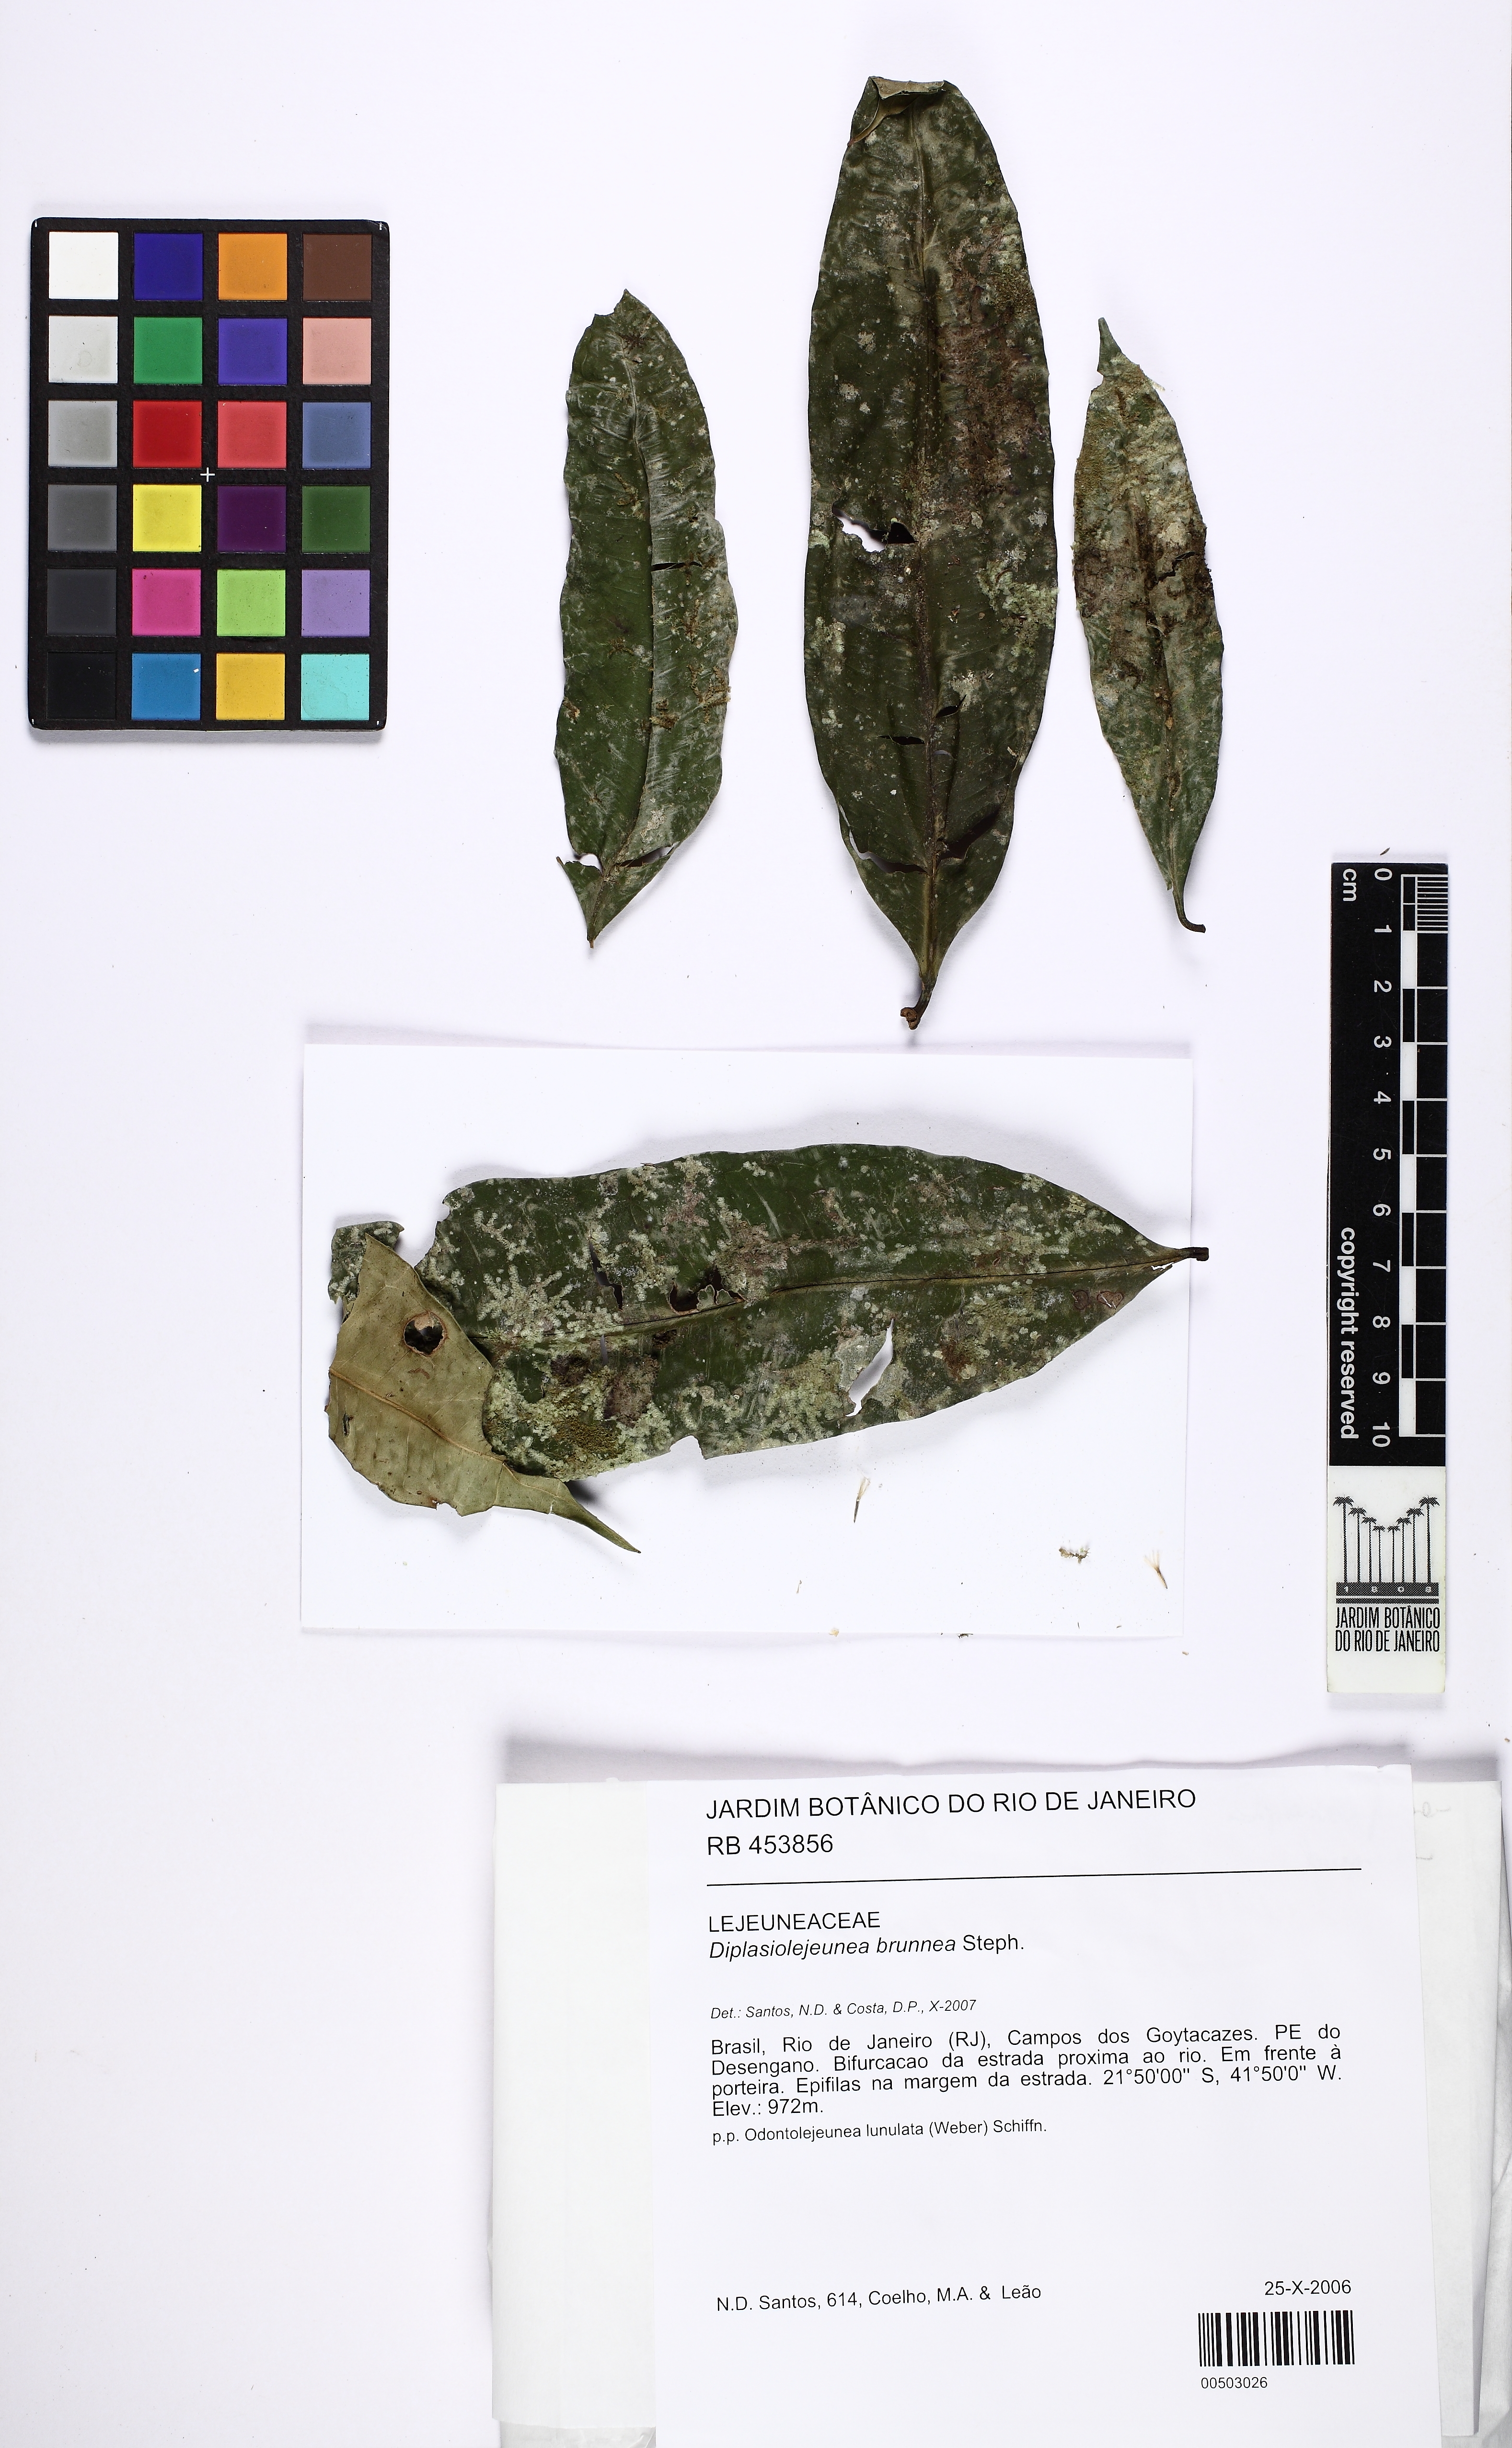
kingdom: Plantae
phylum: Marchantiophyta
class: Jungermanniopsida
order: Porellales
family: Lejeuneaceae
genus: Diplasiolejeunea
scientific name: Diplasiolejeunea brunnea
